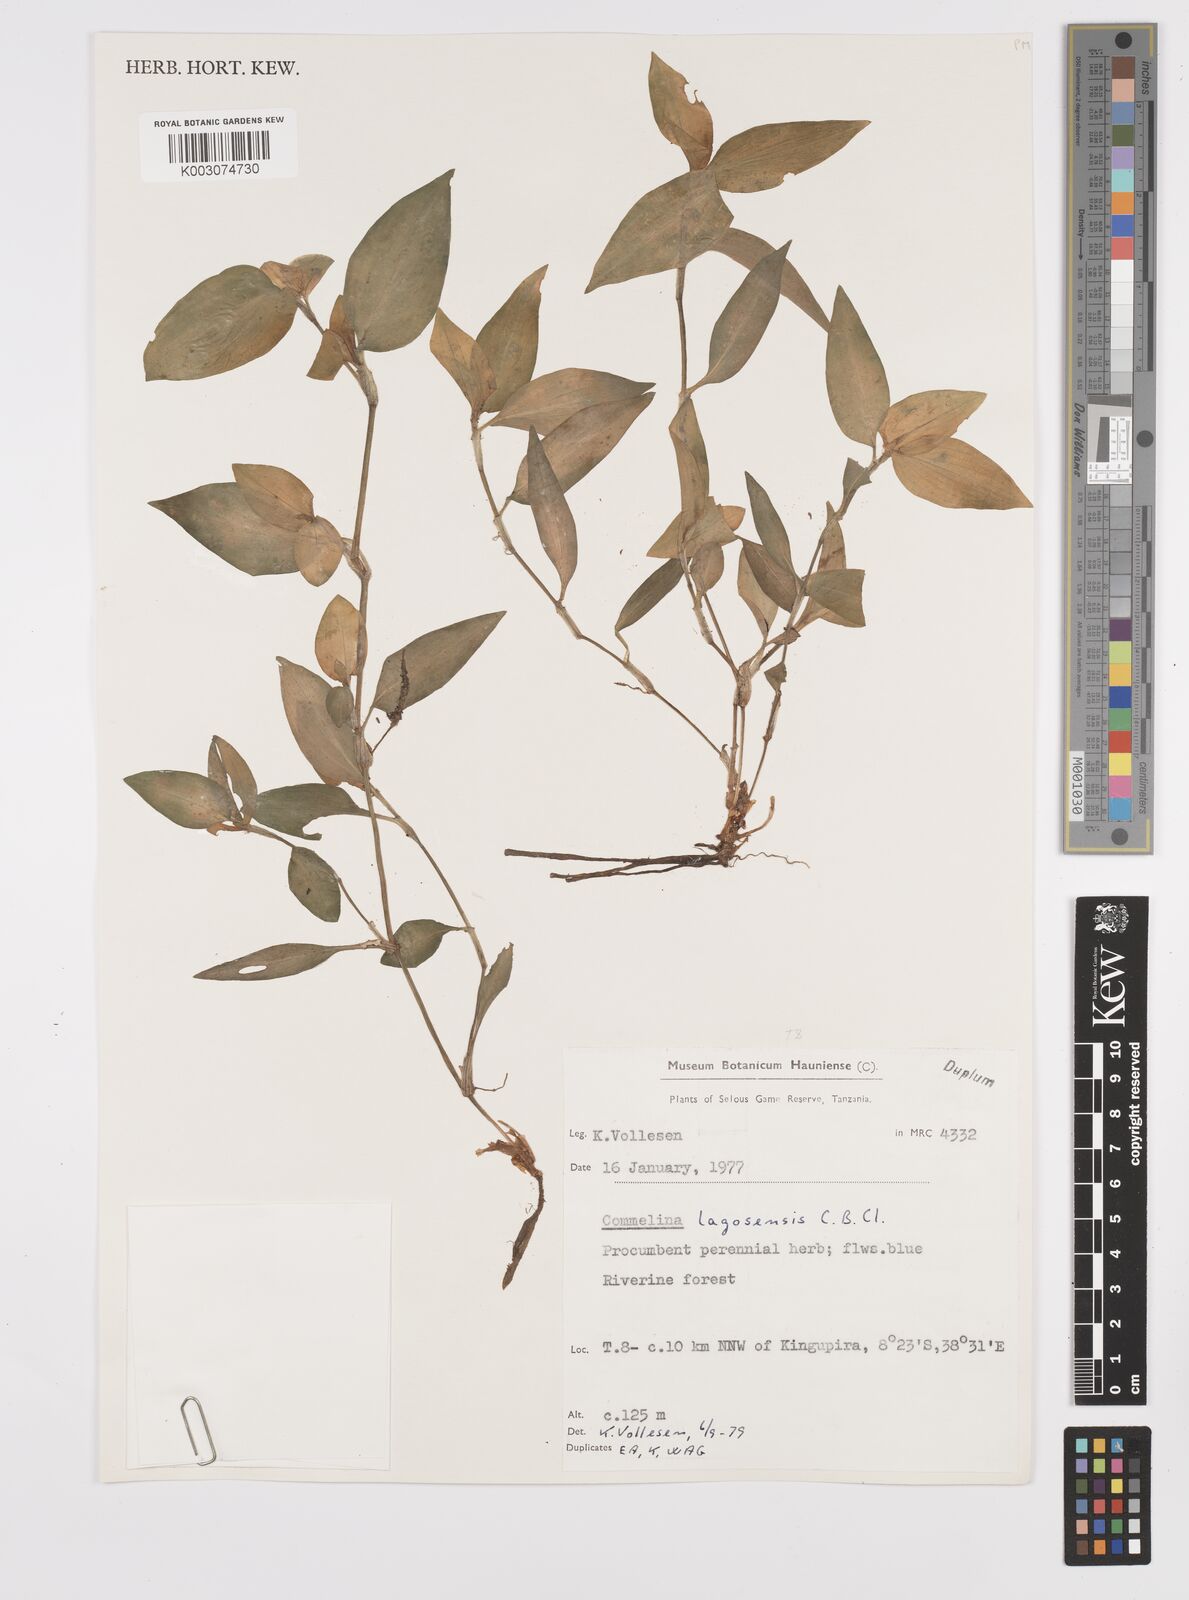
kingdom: Plantae
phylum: Tracheophyta
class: Liliopsida
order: Commelinales
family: Commelinaceae
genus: Commelina
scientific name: Commelina bracteosa
